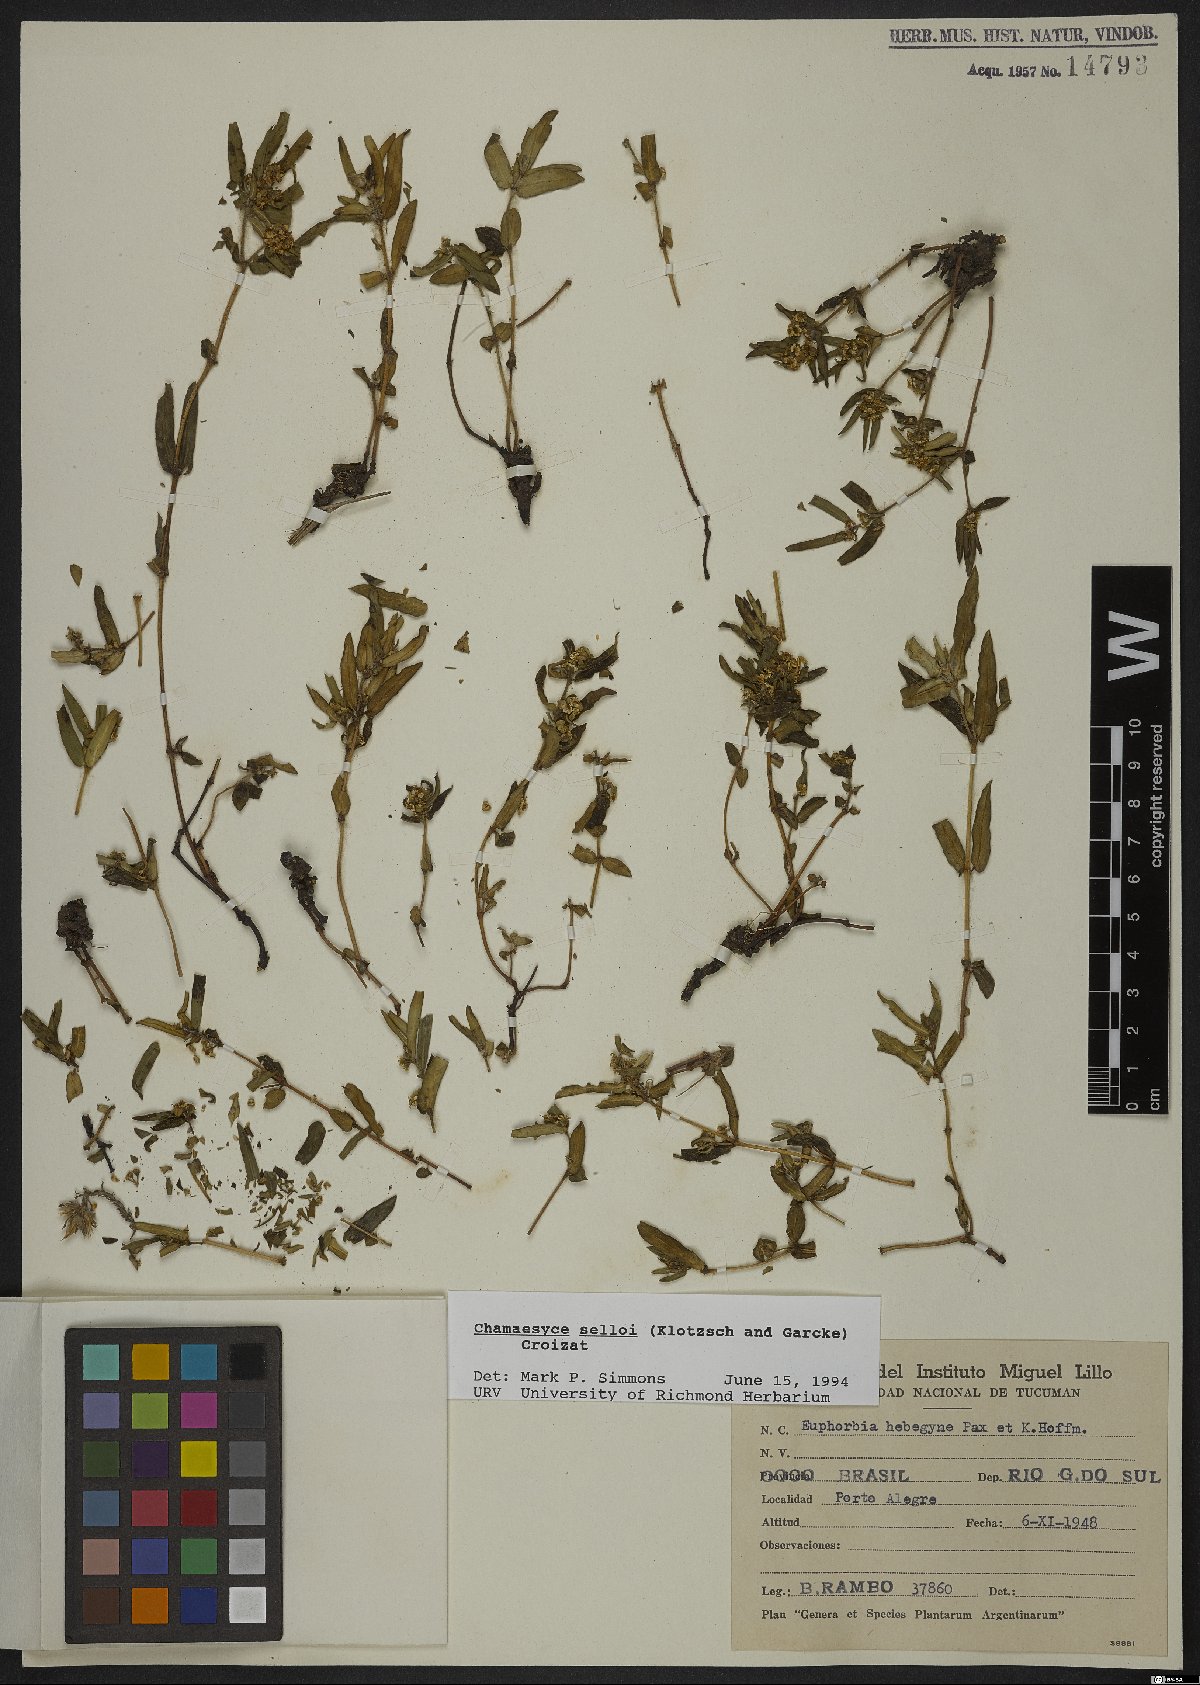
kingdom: Plantae
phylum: Tracheophyta
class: Magnoliopsida
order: Malpighiales
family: Euphorbiaceae
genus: Euphorbia
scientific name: Euphorbia selloi
